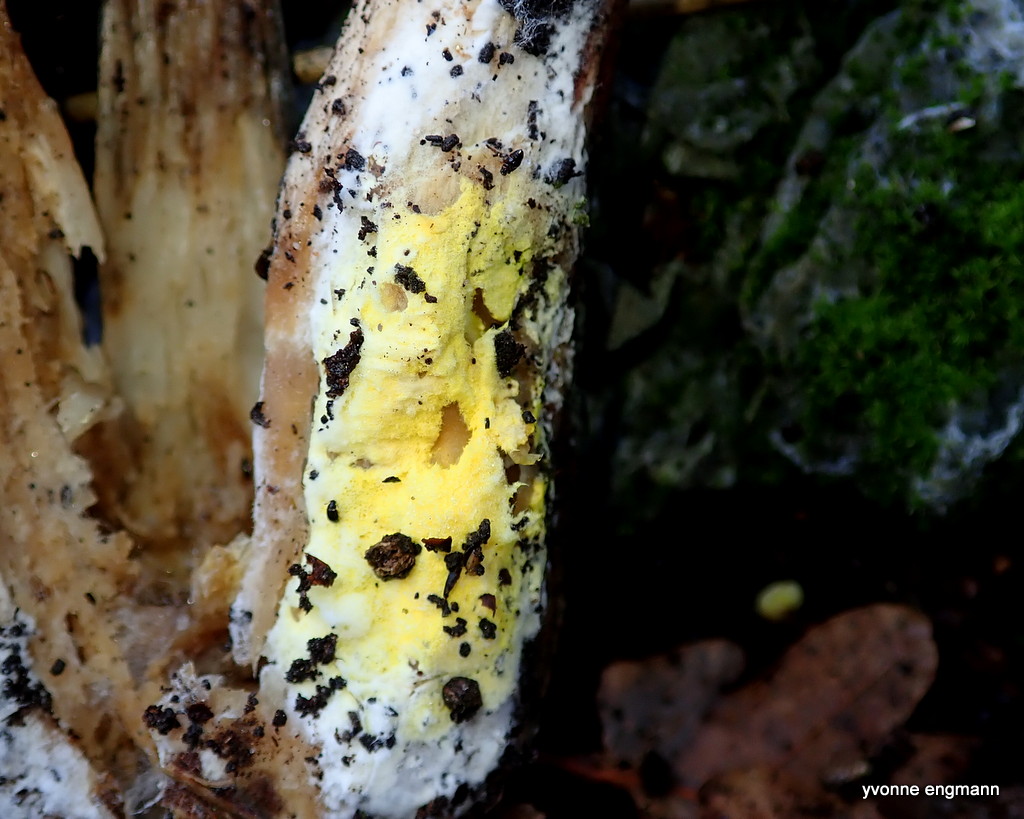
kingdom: Fungi
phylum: Ascomycota
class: Sordariomycetes
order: Hypocreales
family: Hypocreaceae
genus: Hypomyces
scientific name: Hypomyces
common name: snylteskorpe
